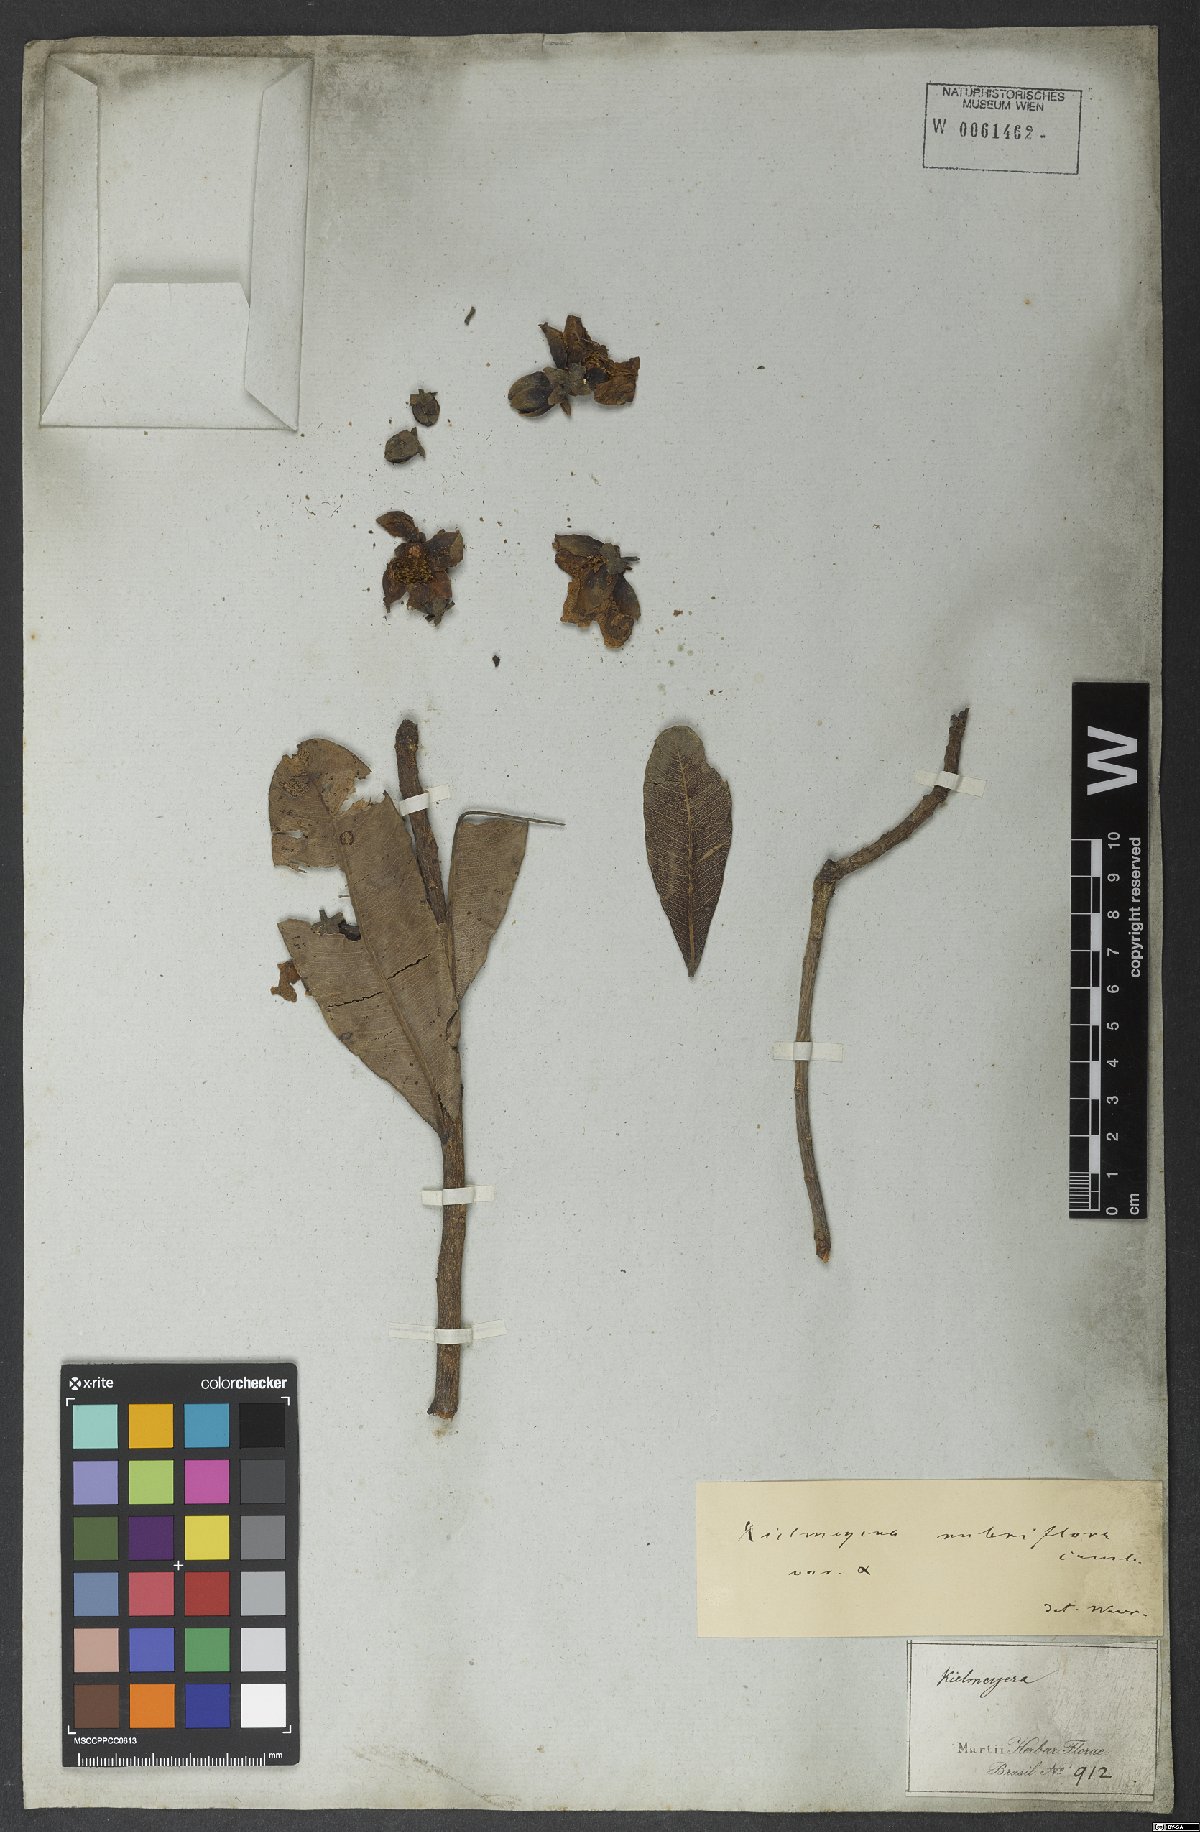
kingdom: Plantae
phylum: Tracheophyta
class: Magnoliopsida
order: Malpighiales
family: Calophyllaceae
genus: Kielmeyera
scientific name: Kielmeyera rubriflora
